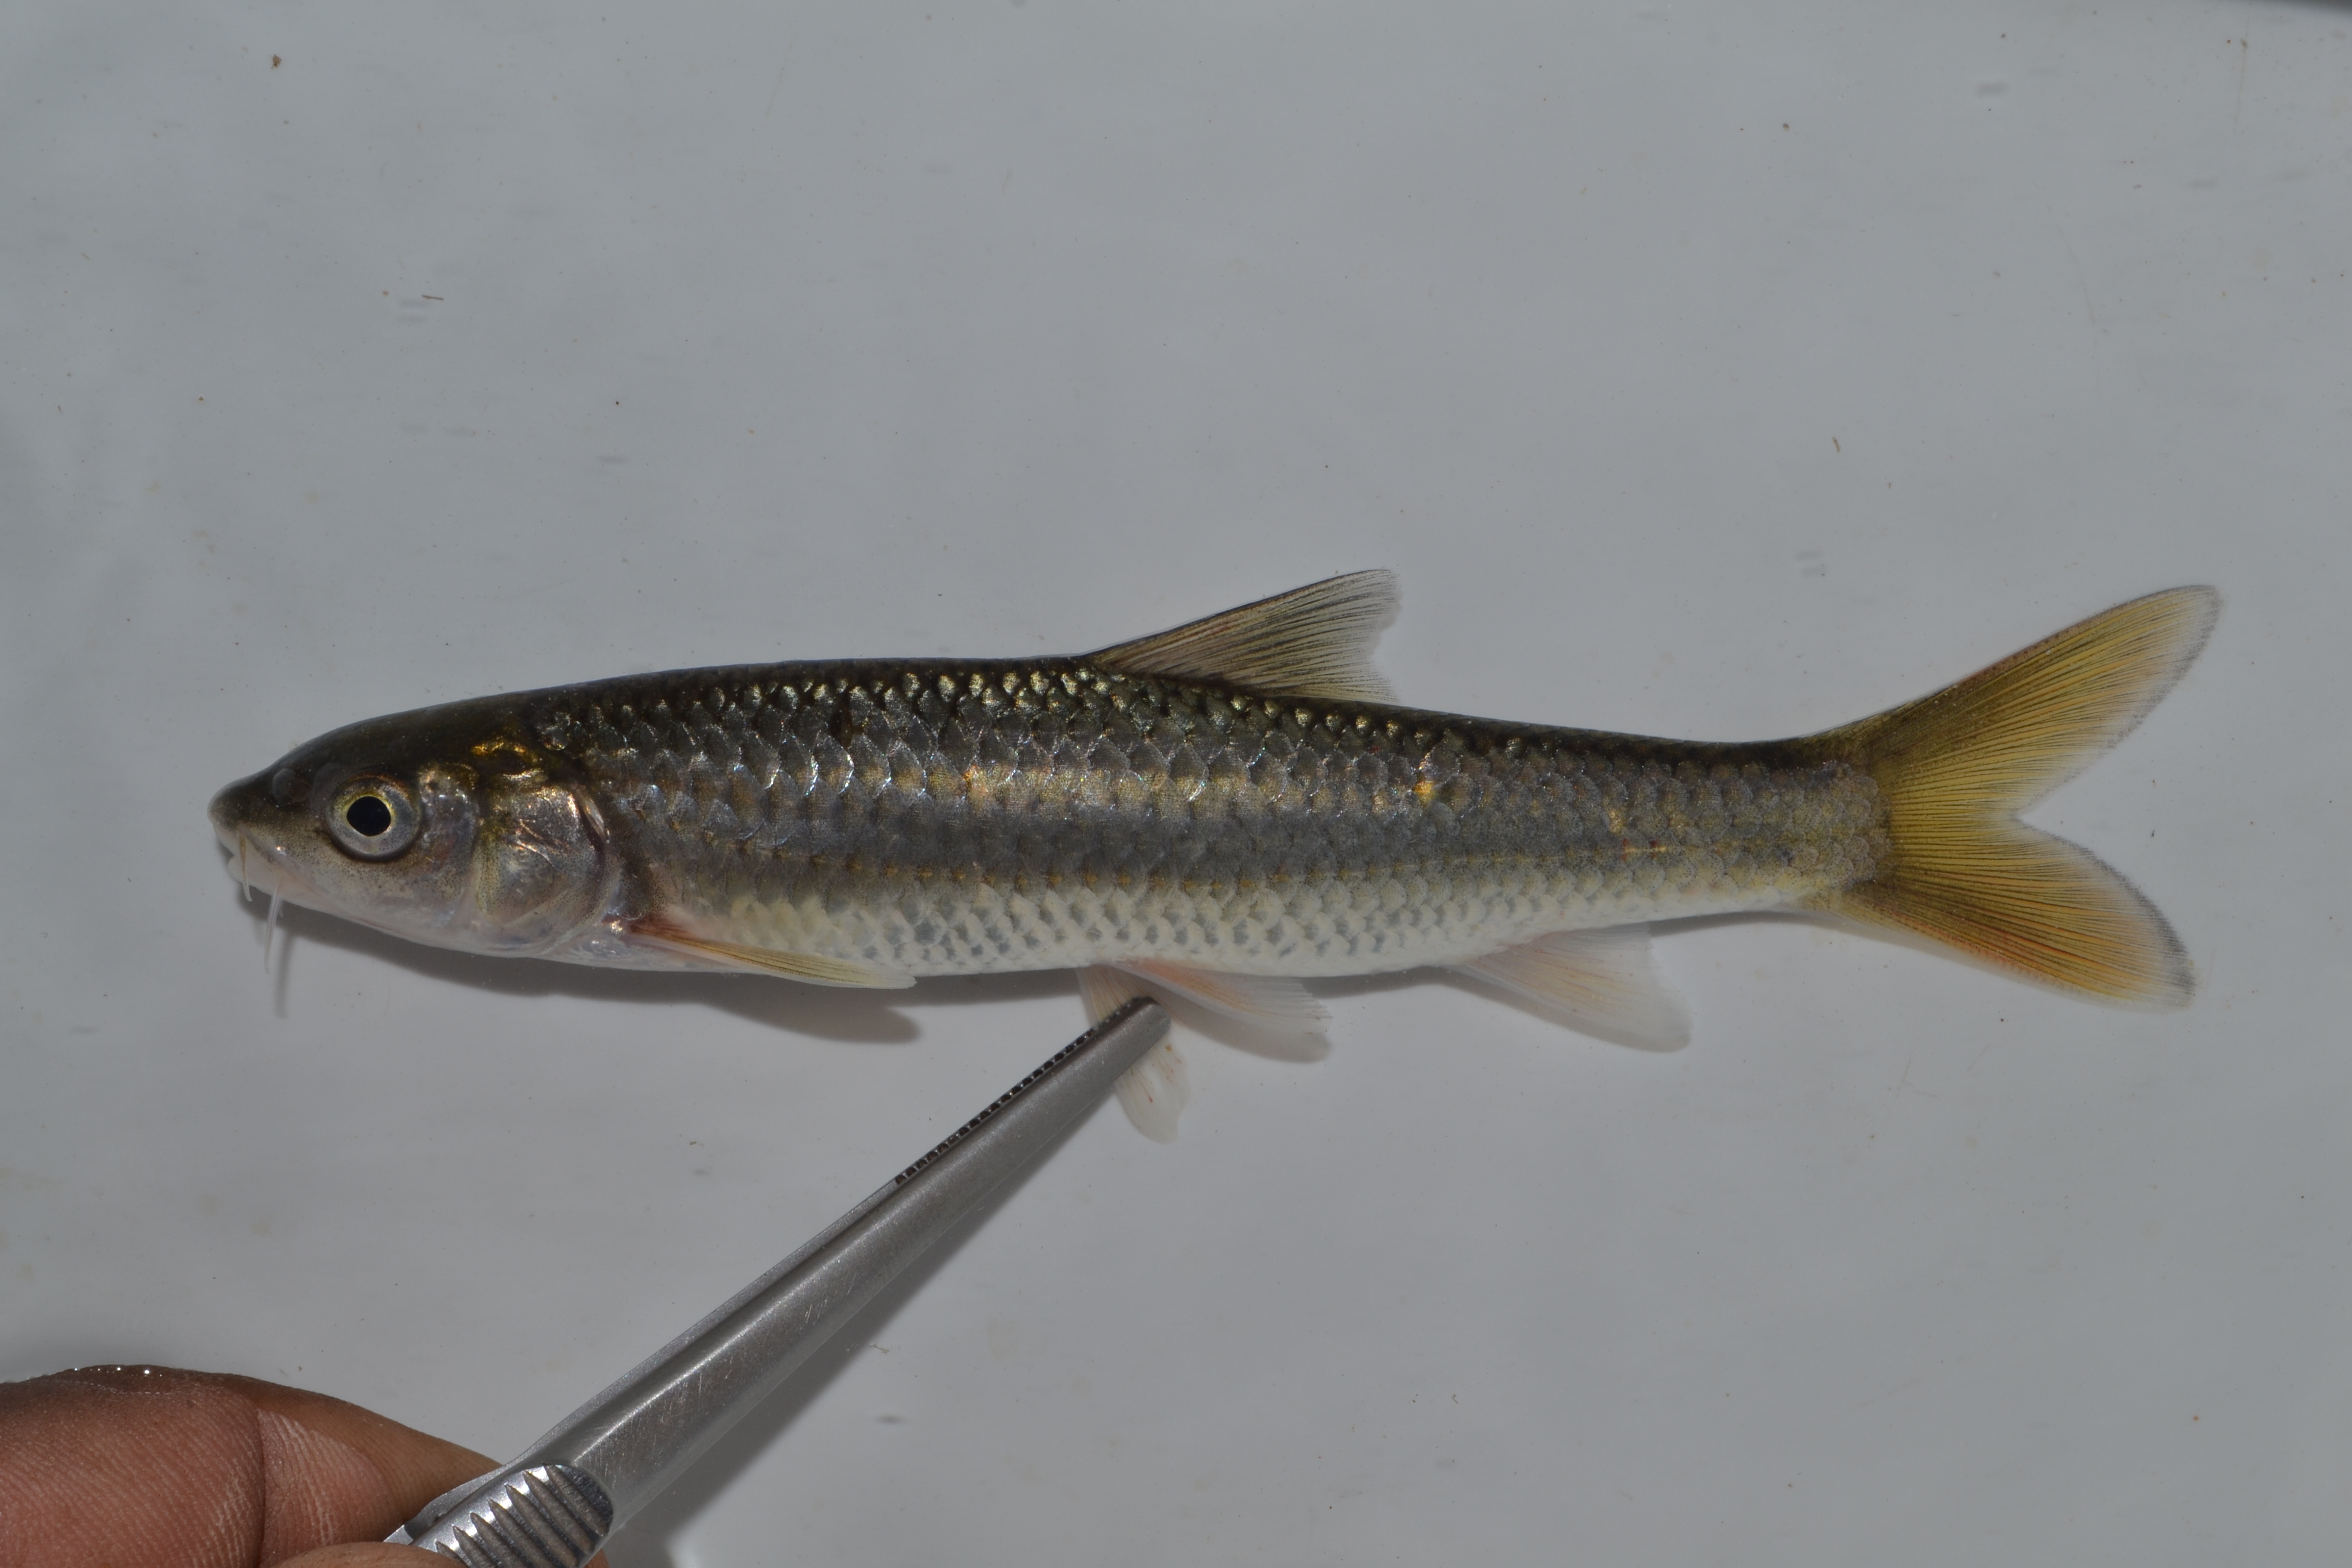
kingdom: Animalia
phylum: Chordata
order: Cypriniformes
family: Cyprinidae
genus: Labeobarbus
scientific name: Labeobarbus polylepis
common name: Bushveld smallscale yellowfish
